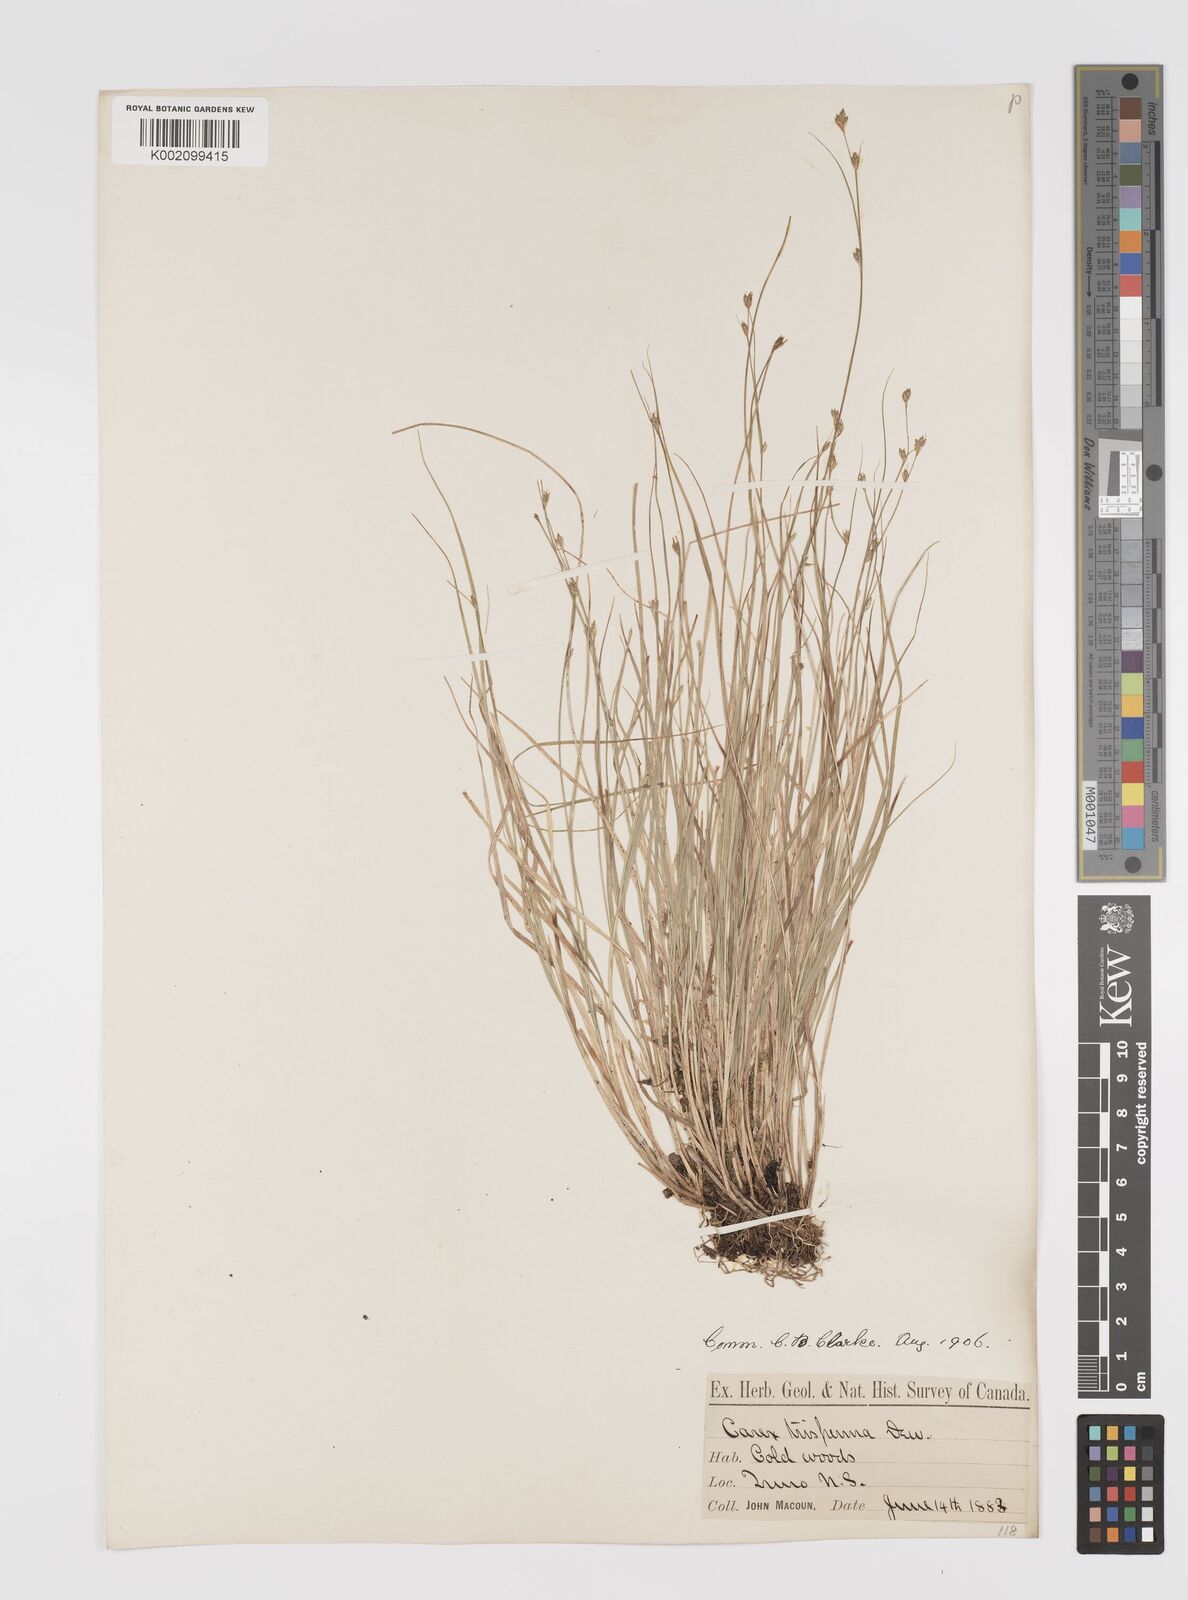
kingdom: Plantae
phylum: Tracheophyta
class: Liliopsida
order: Poales
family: Cyperaceae
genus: Carex
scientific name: Carex trisperma
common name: Three-seeded sedge
